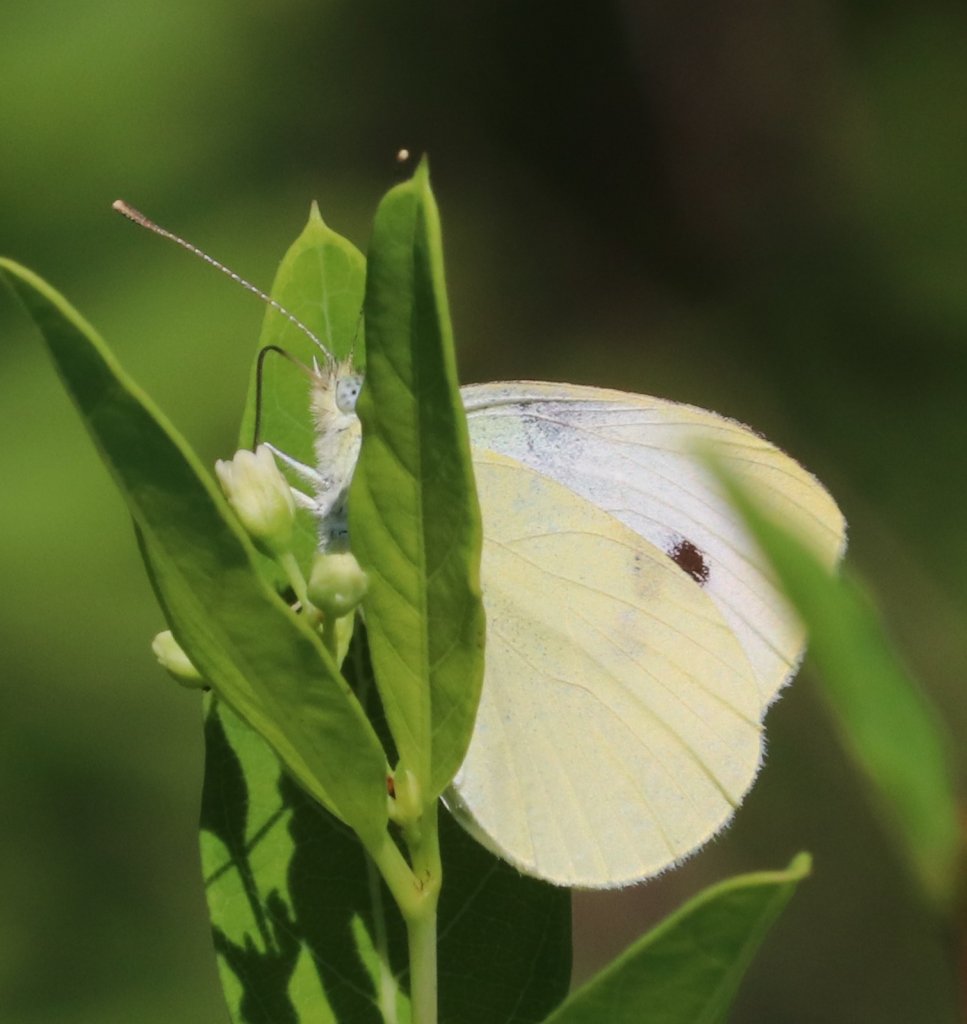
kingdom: Animalia
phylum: Arthropoda
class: Insecta
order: Lepidoptera
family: Pieridae
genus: Pieris
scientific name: Pieris rapae
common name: Cabbage White
